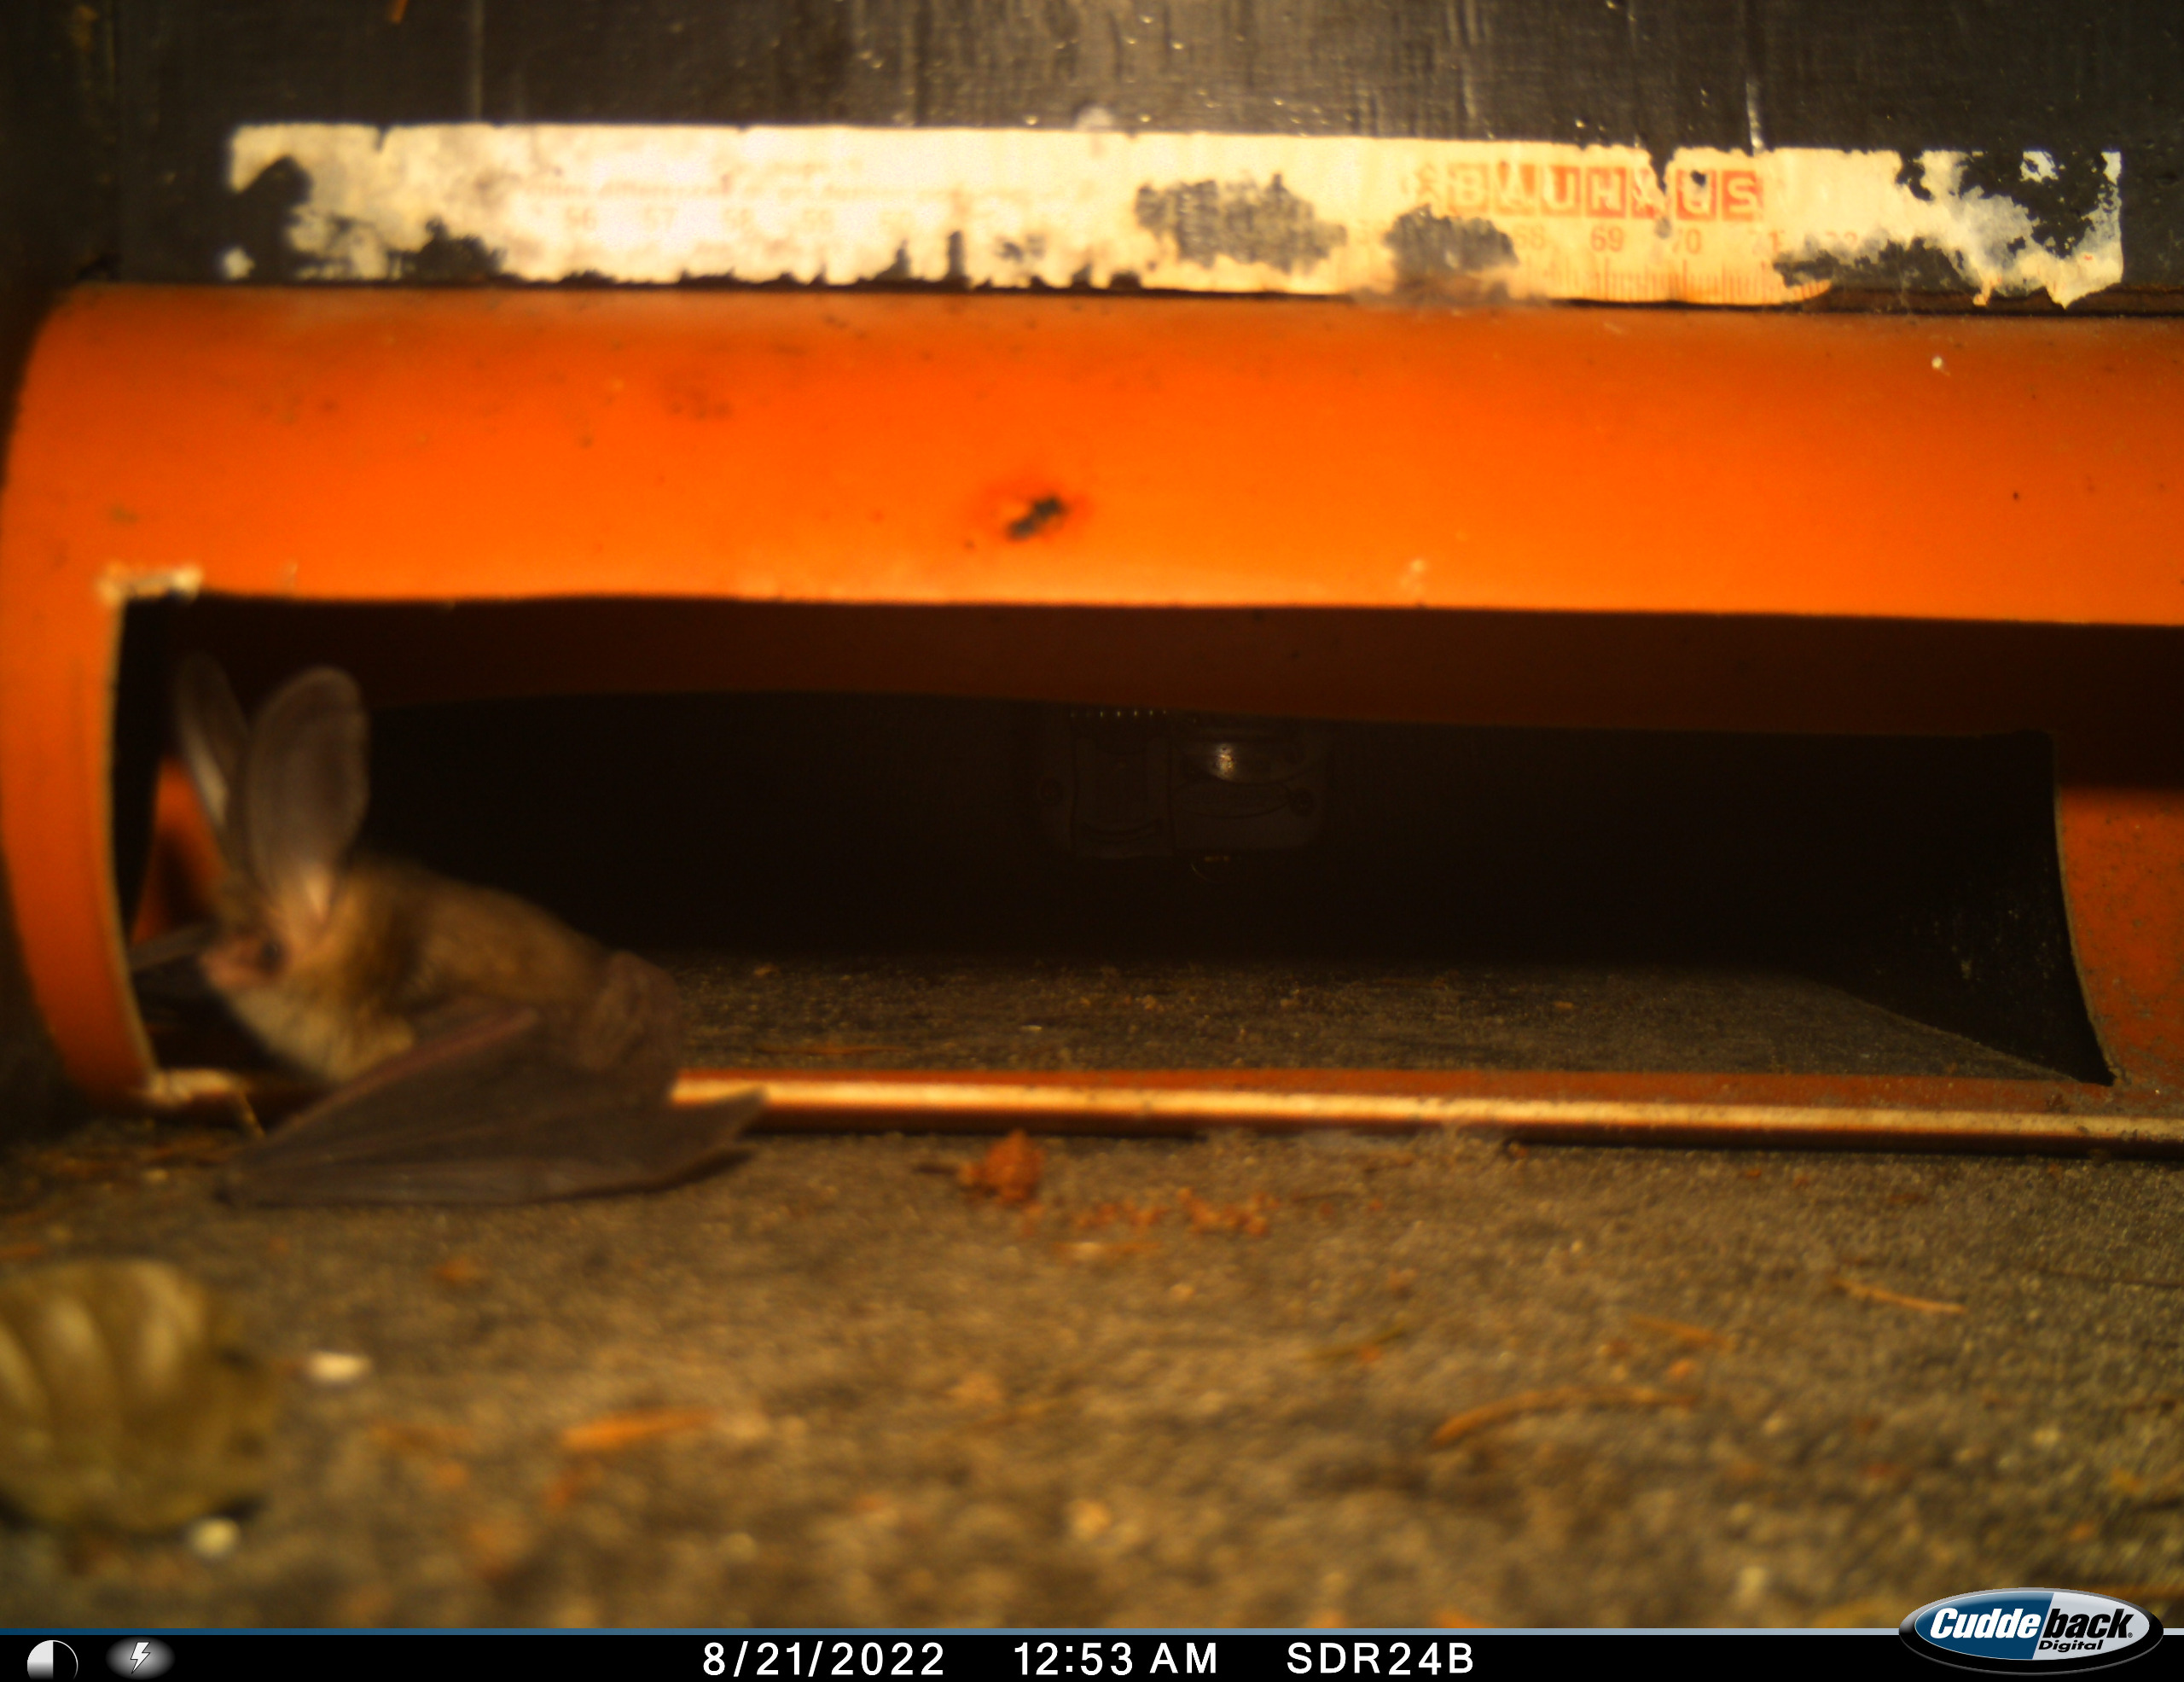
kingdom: Animalia
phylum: Chordata
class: Mammalia
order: Chiroptera
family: Vespertilionidae
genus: Plecotus
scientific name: Plecotus auritus
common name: Brun langøre
